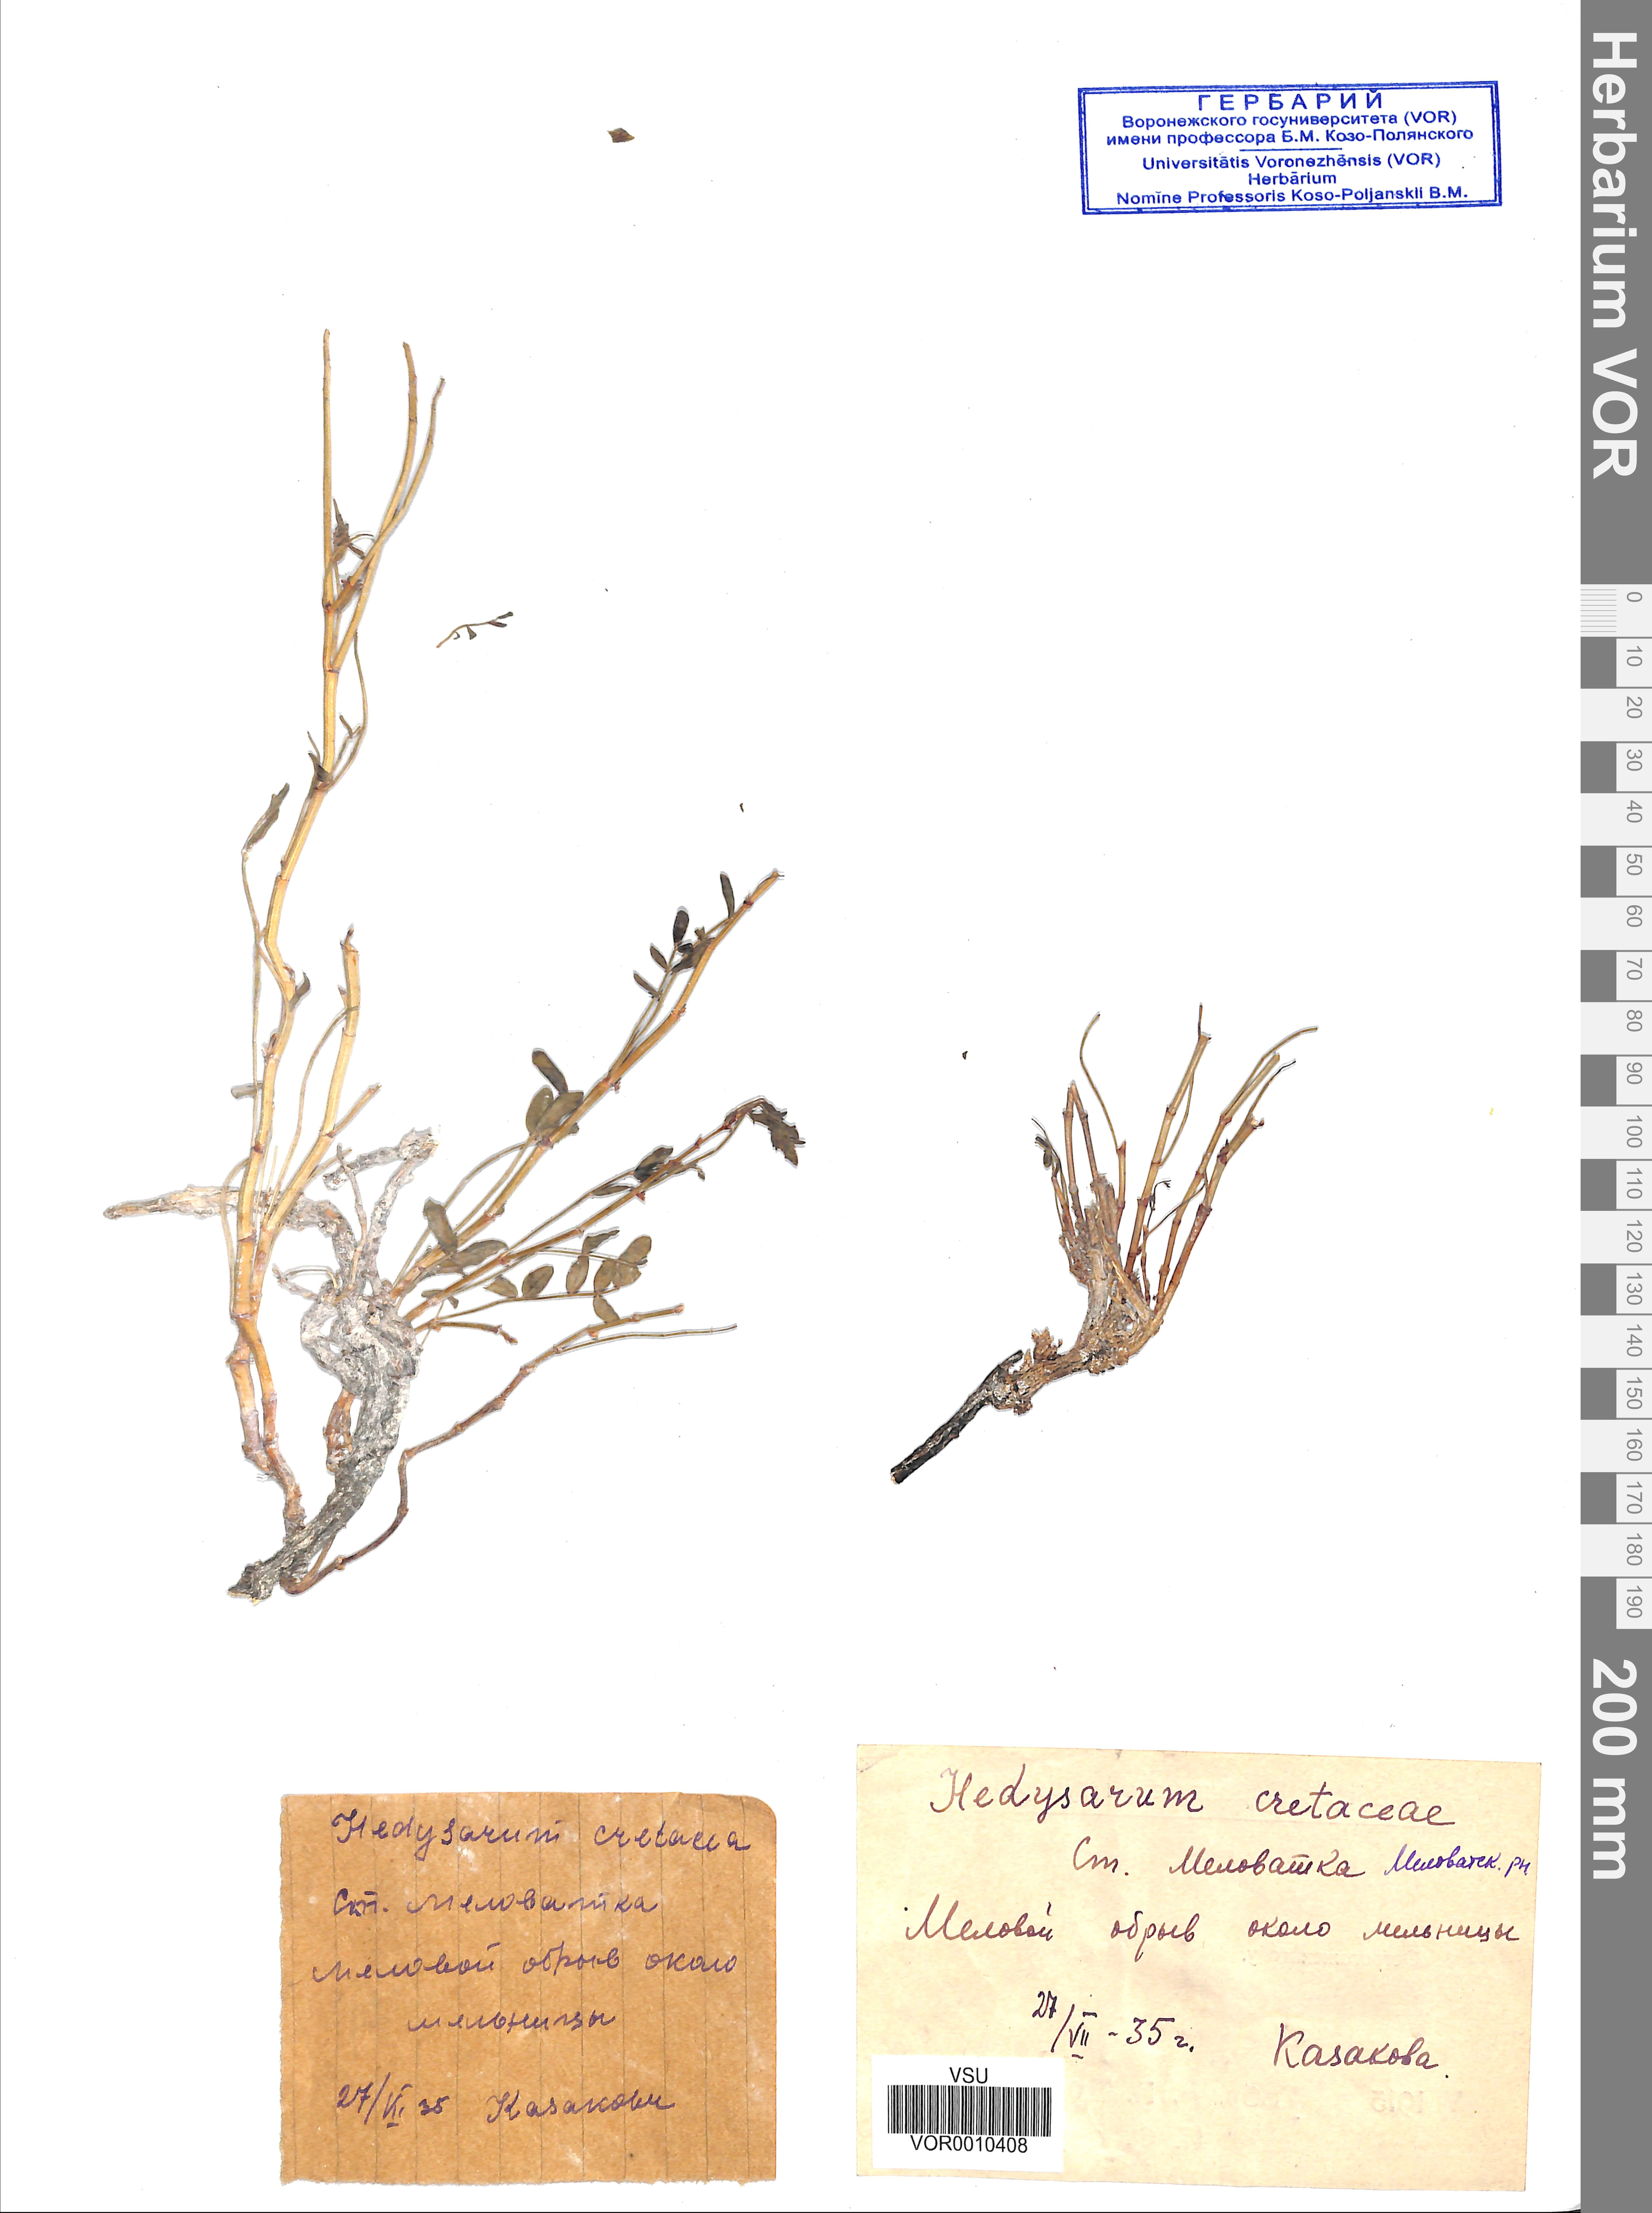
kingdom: Plantae
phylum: Tracheophyta
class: Magnoliopsida
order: Fabales
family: Fabaceae
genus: Hedysarum
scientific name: Hedysarum cretaceum
